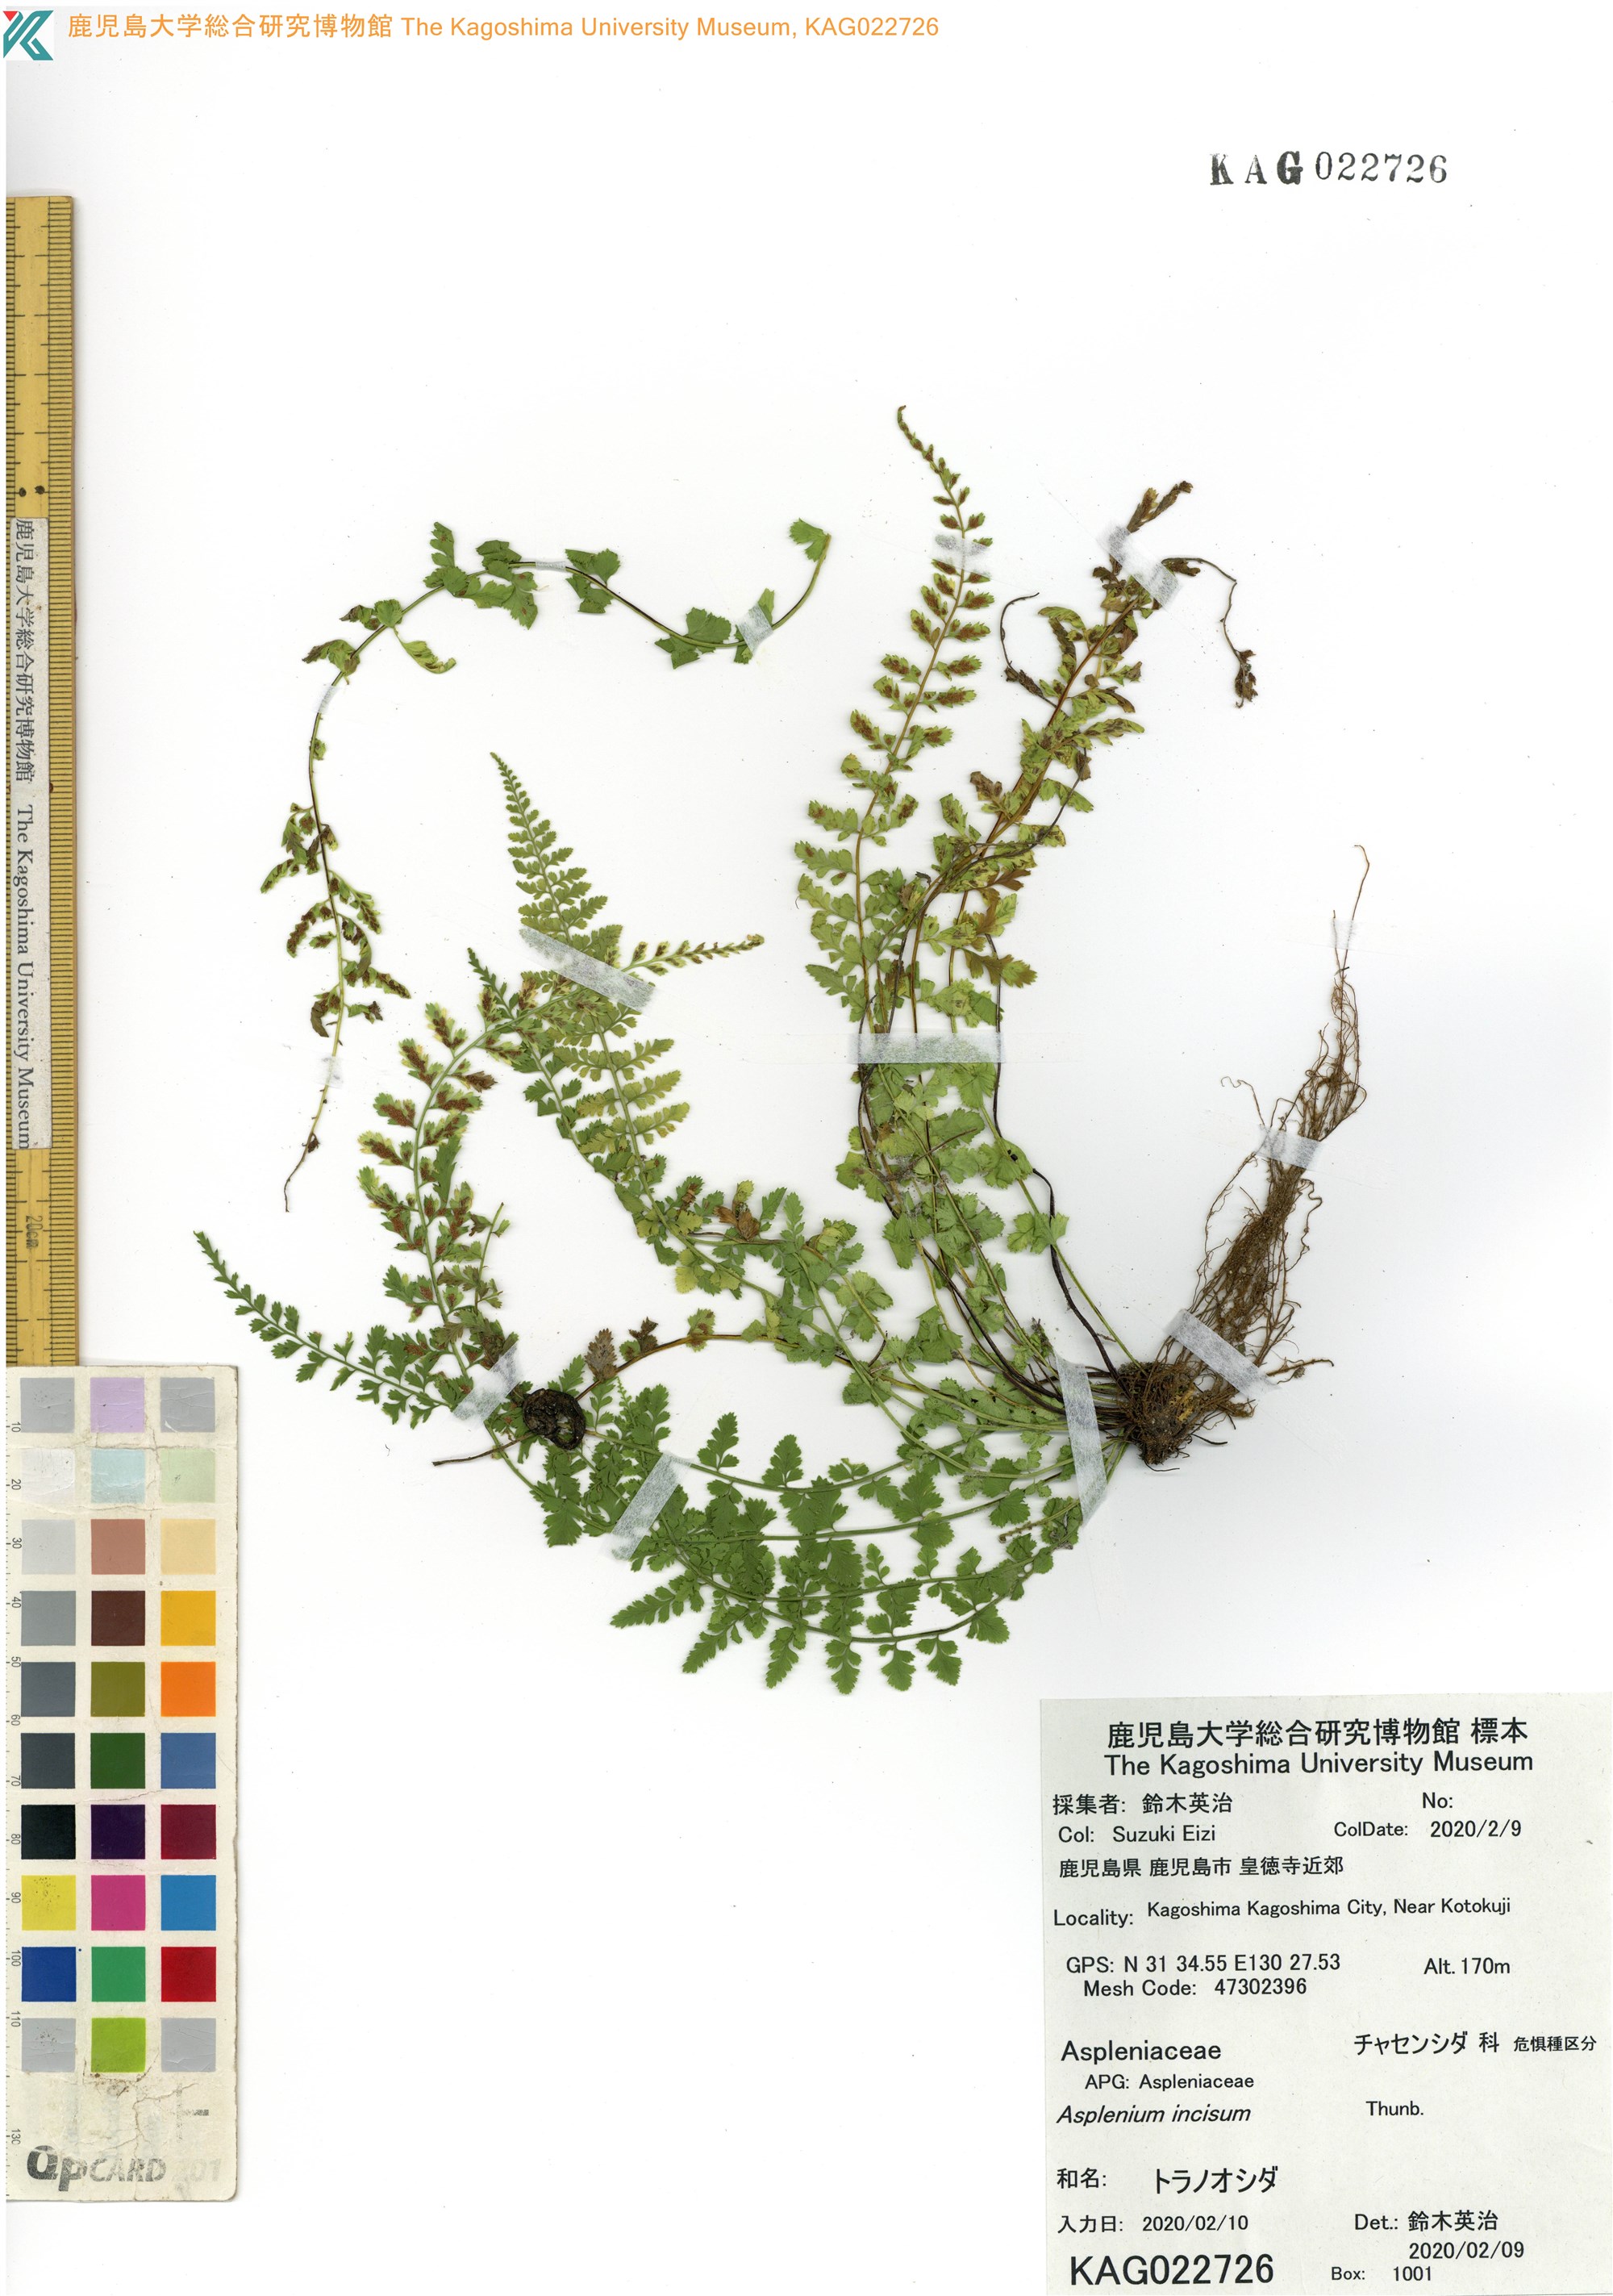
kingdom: Plantae
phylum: Tracheophyta
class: Polypodiopsida
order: Polypodiales
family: Aspleniaceae
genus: Asplenium
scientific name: Asplenium incisum
